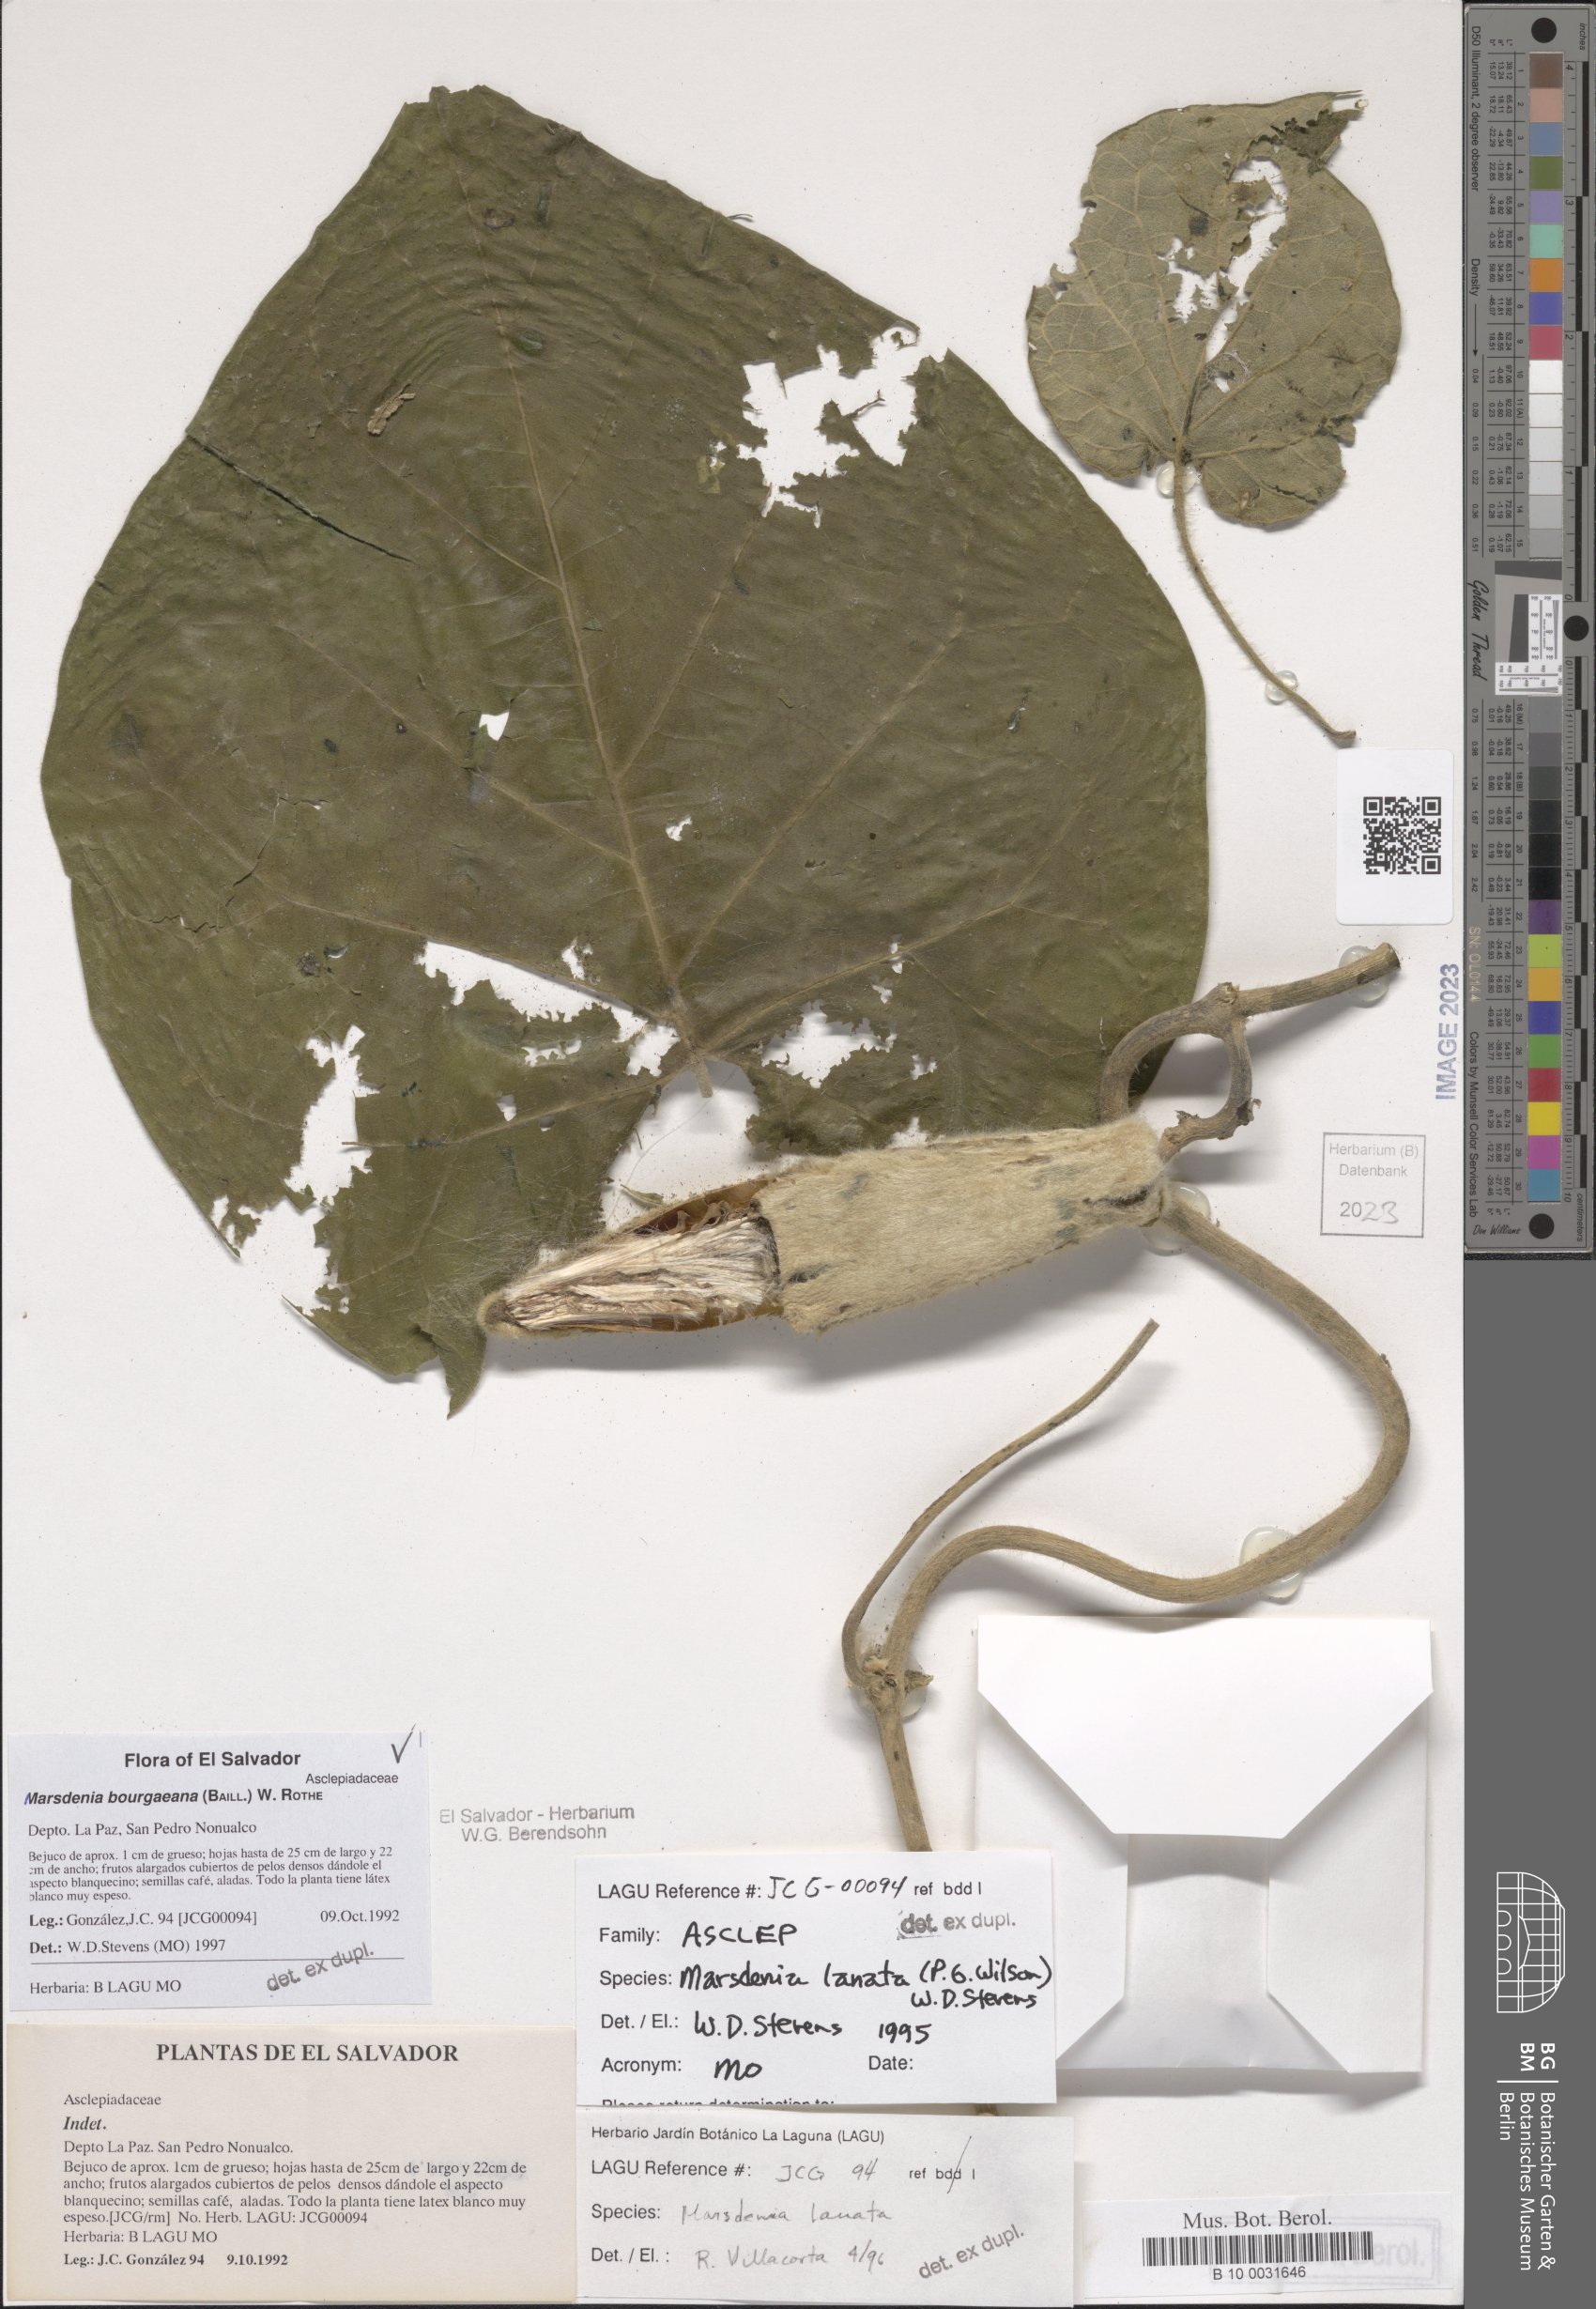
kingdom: Plantae
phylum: Tracheophyta
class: Magnoliopsida
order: Gentianales
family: Apocynaceae
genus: Ruehssia
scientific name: Ruehssia bourgaeana
